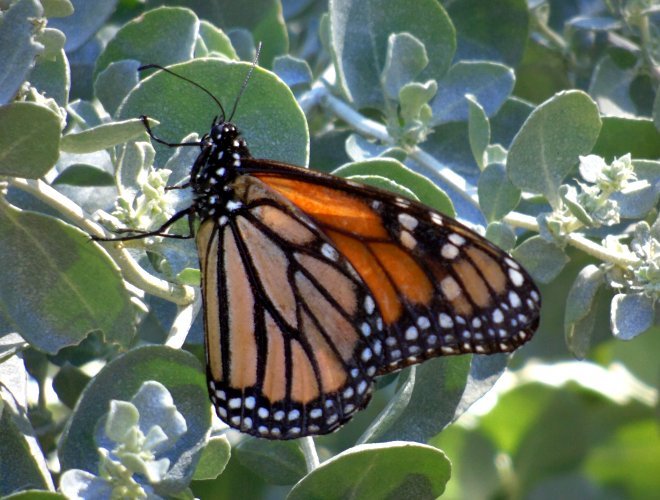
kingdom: Animalia
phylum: Arthropoda
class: Insecta
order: Lepidoptera
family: Nymphalidae
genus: Danaus
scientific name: Danaus plexippus
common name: Monarch
